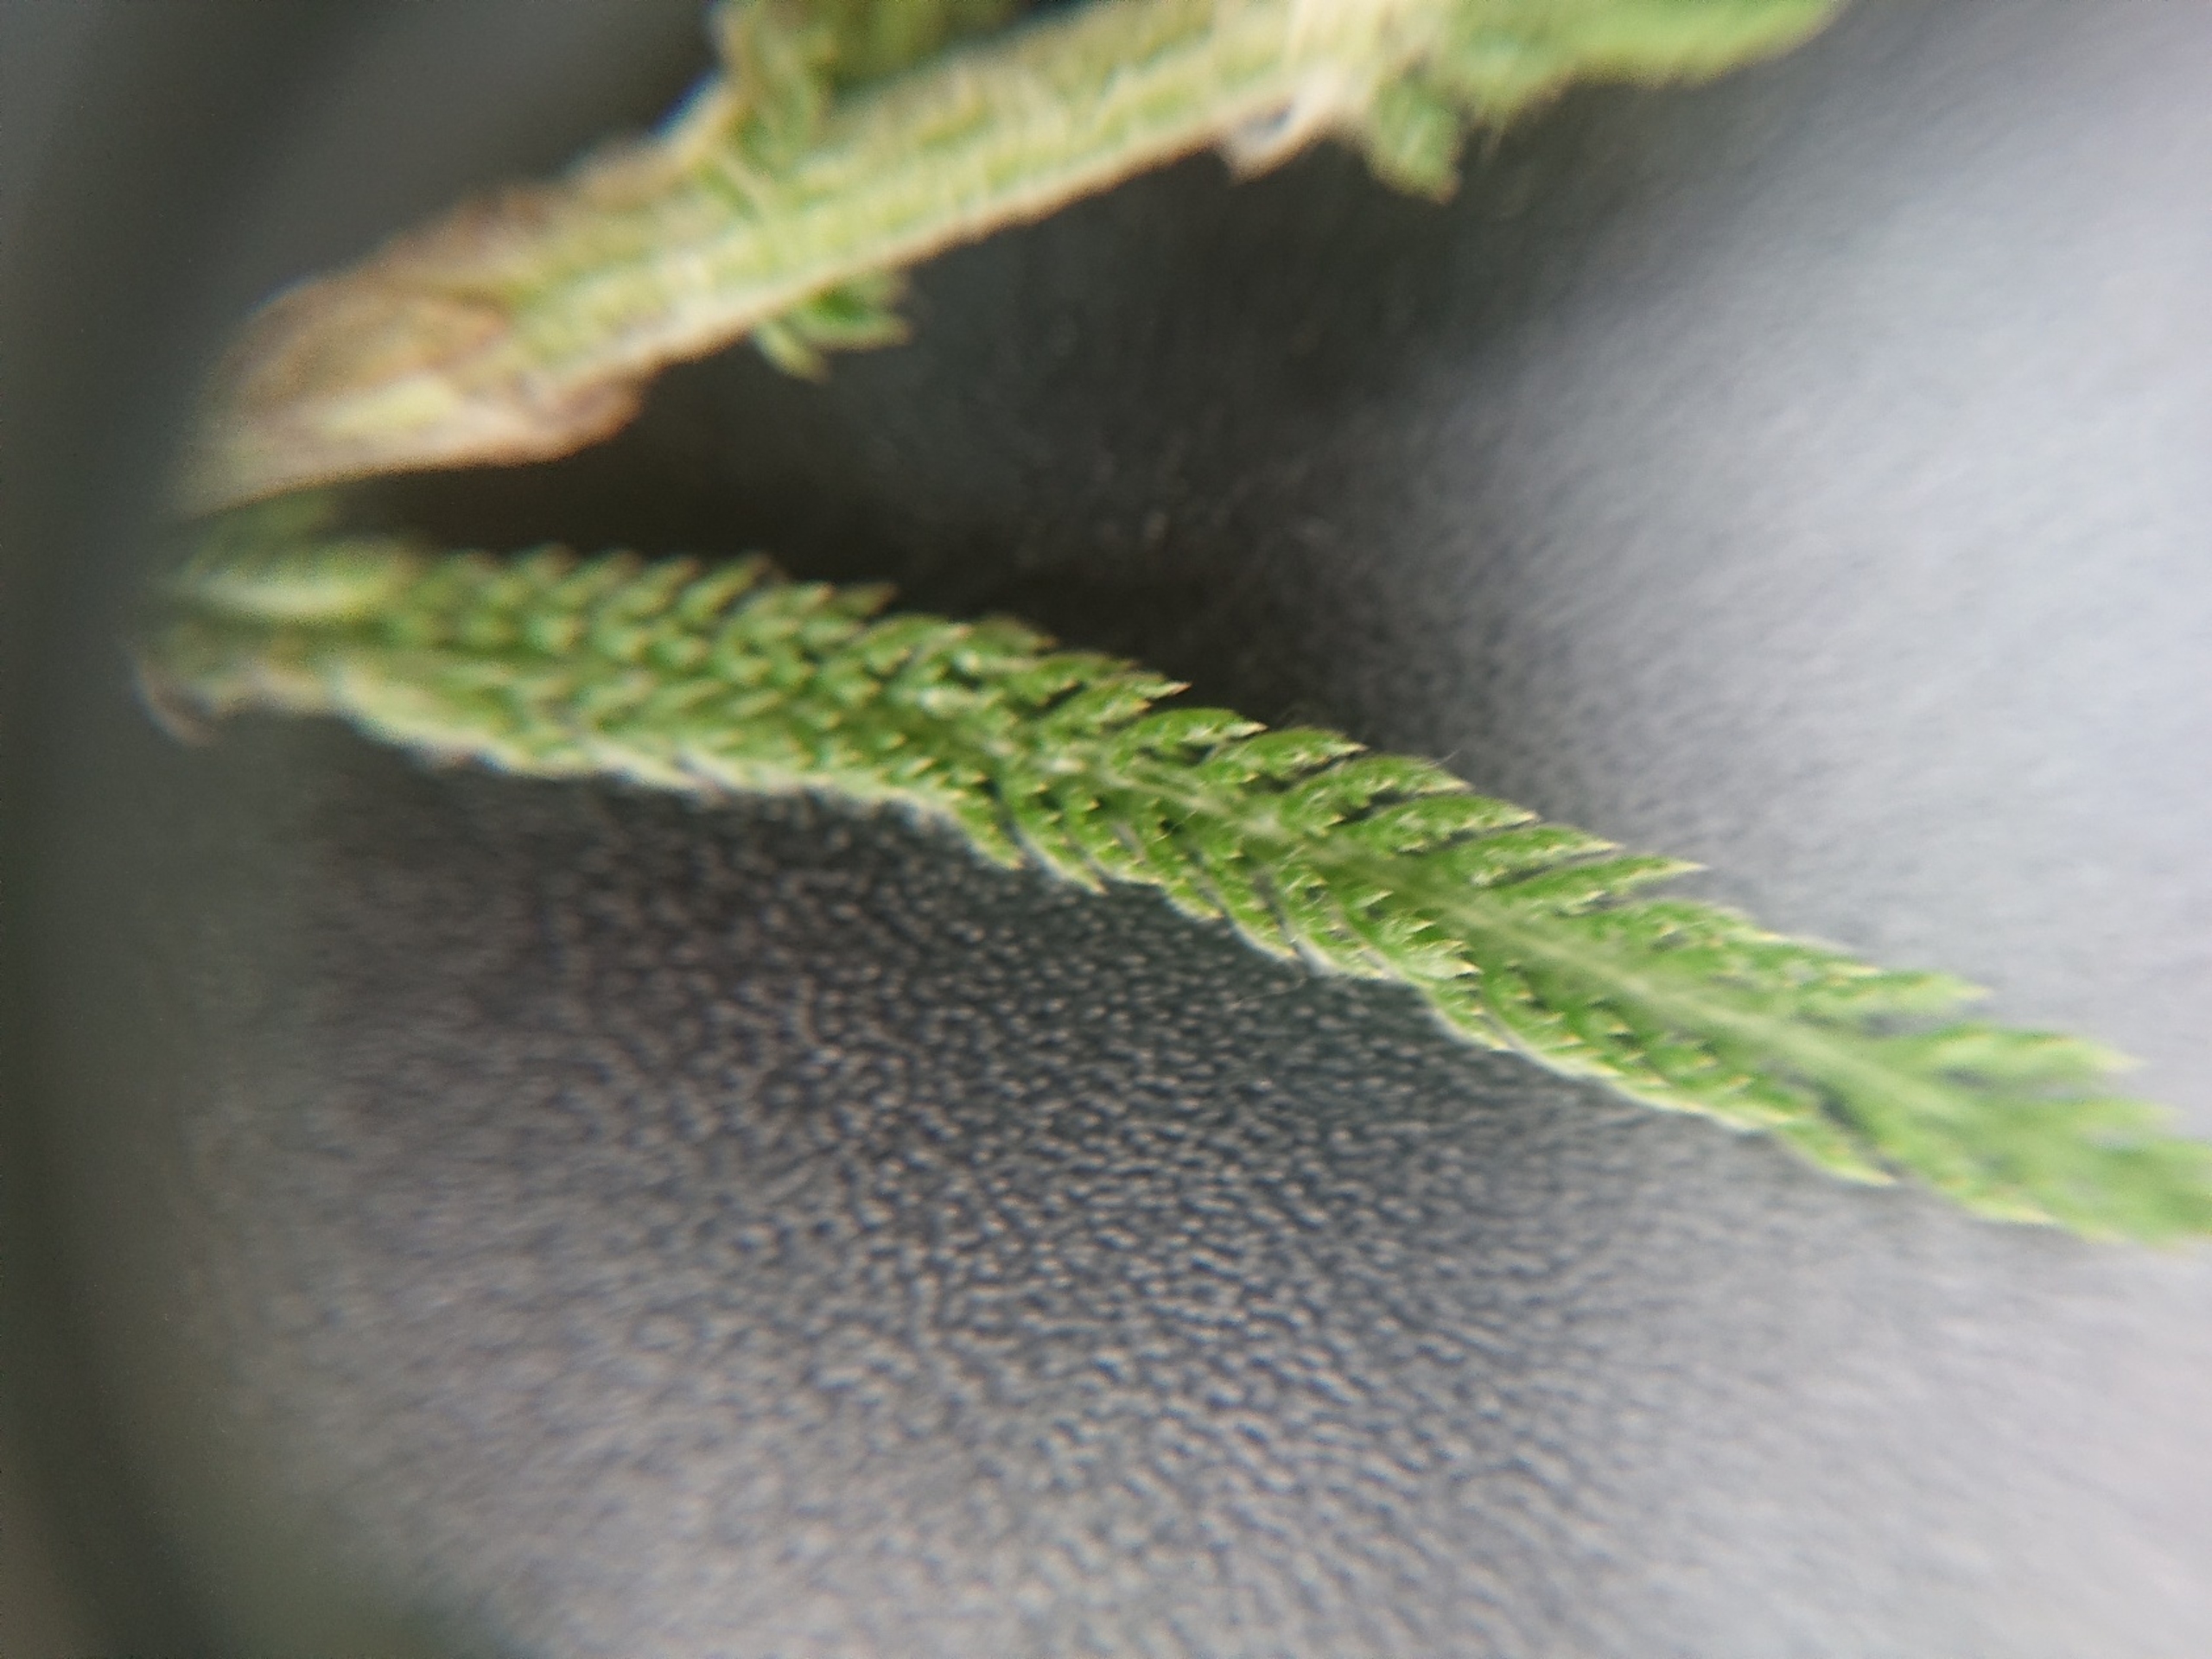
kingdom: Plantae
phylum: Tracheophyta
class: Magnoliopsida
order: Asterales
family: Asteraceae
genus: Achillea
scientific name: Achillea millefolium
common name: Almindelig røllike
